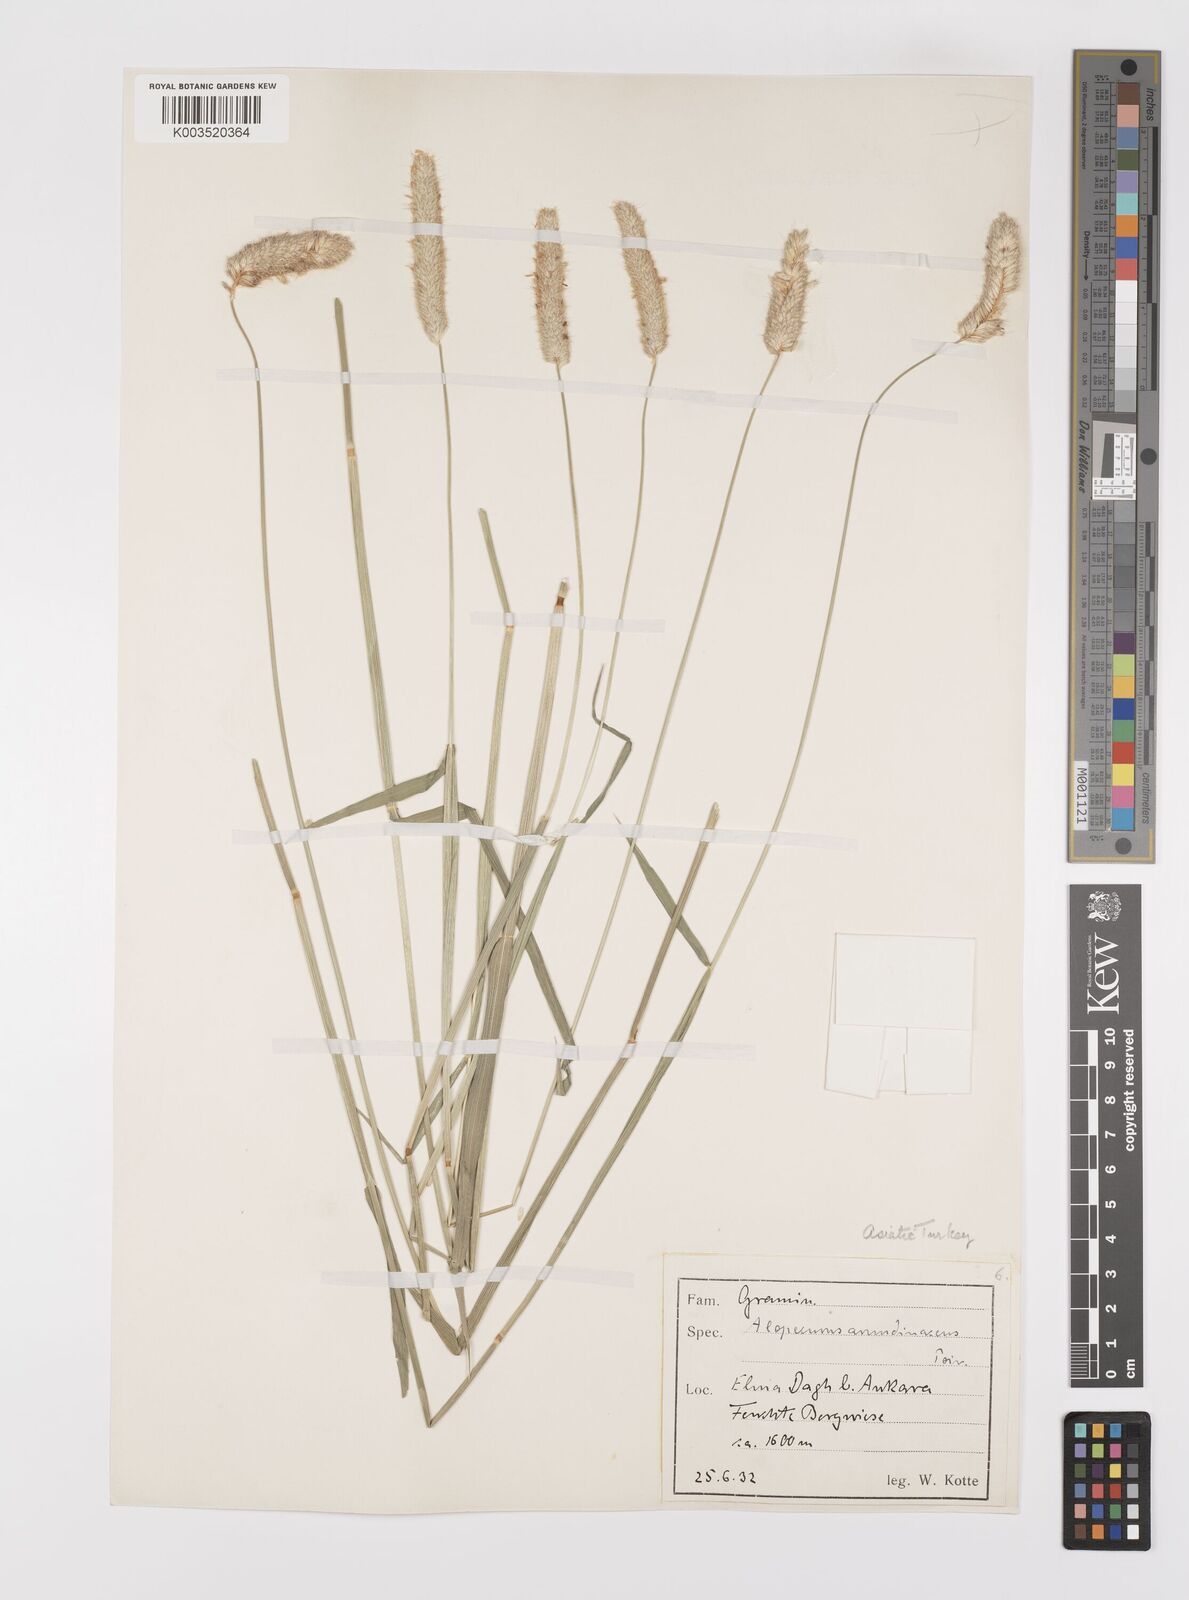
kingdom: Plantae
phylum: Tracheophyta
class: Liliopsida
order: Poales
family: Poaceae
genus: Alopecurus
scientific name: Alopecurus arundinaceus
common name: Creeping meadow foxtail
